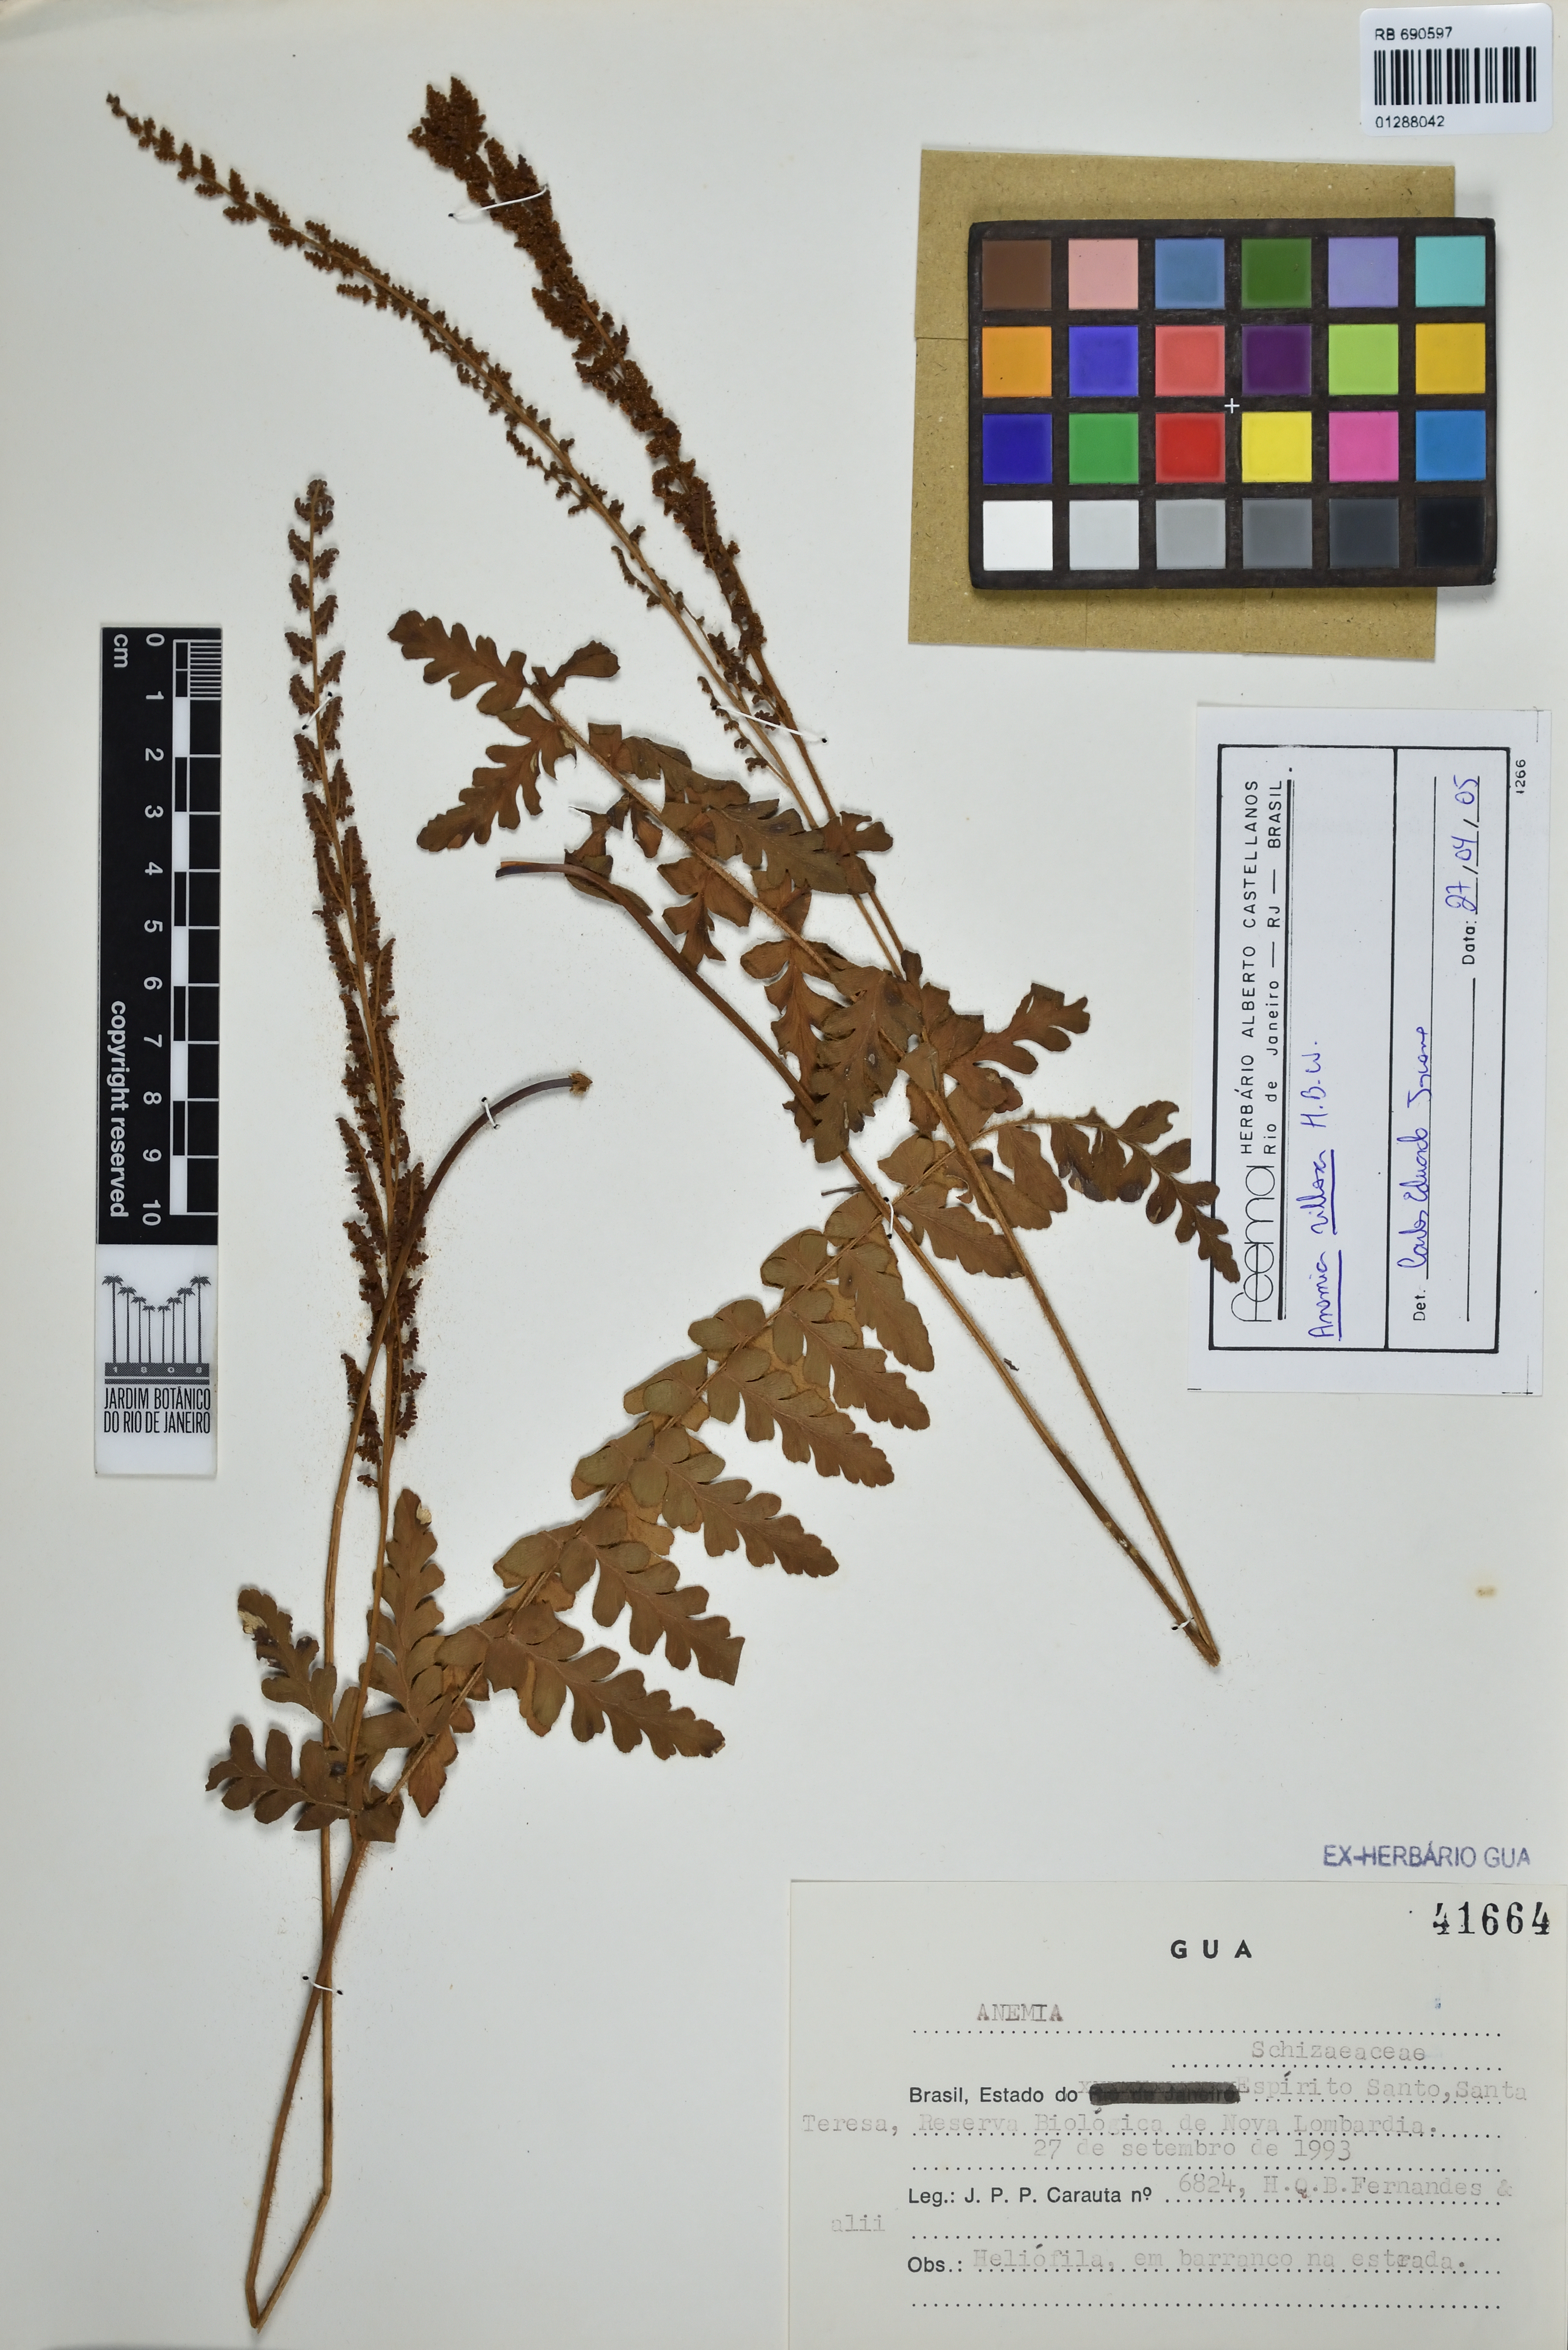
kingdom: Plantae
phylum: Tracheophyta
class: Polypodiopsida
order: Schizaeales
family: Anemiaceae
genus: Anemia
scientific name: Anemia villosa
